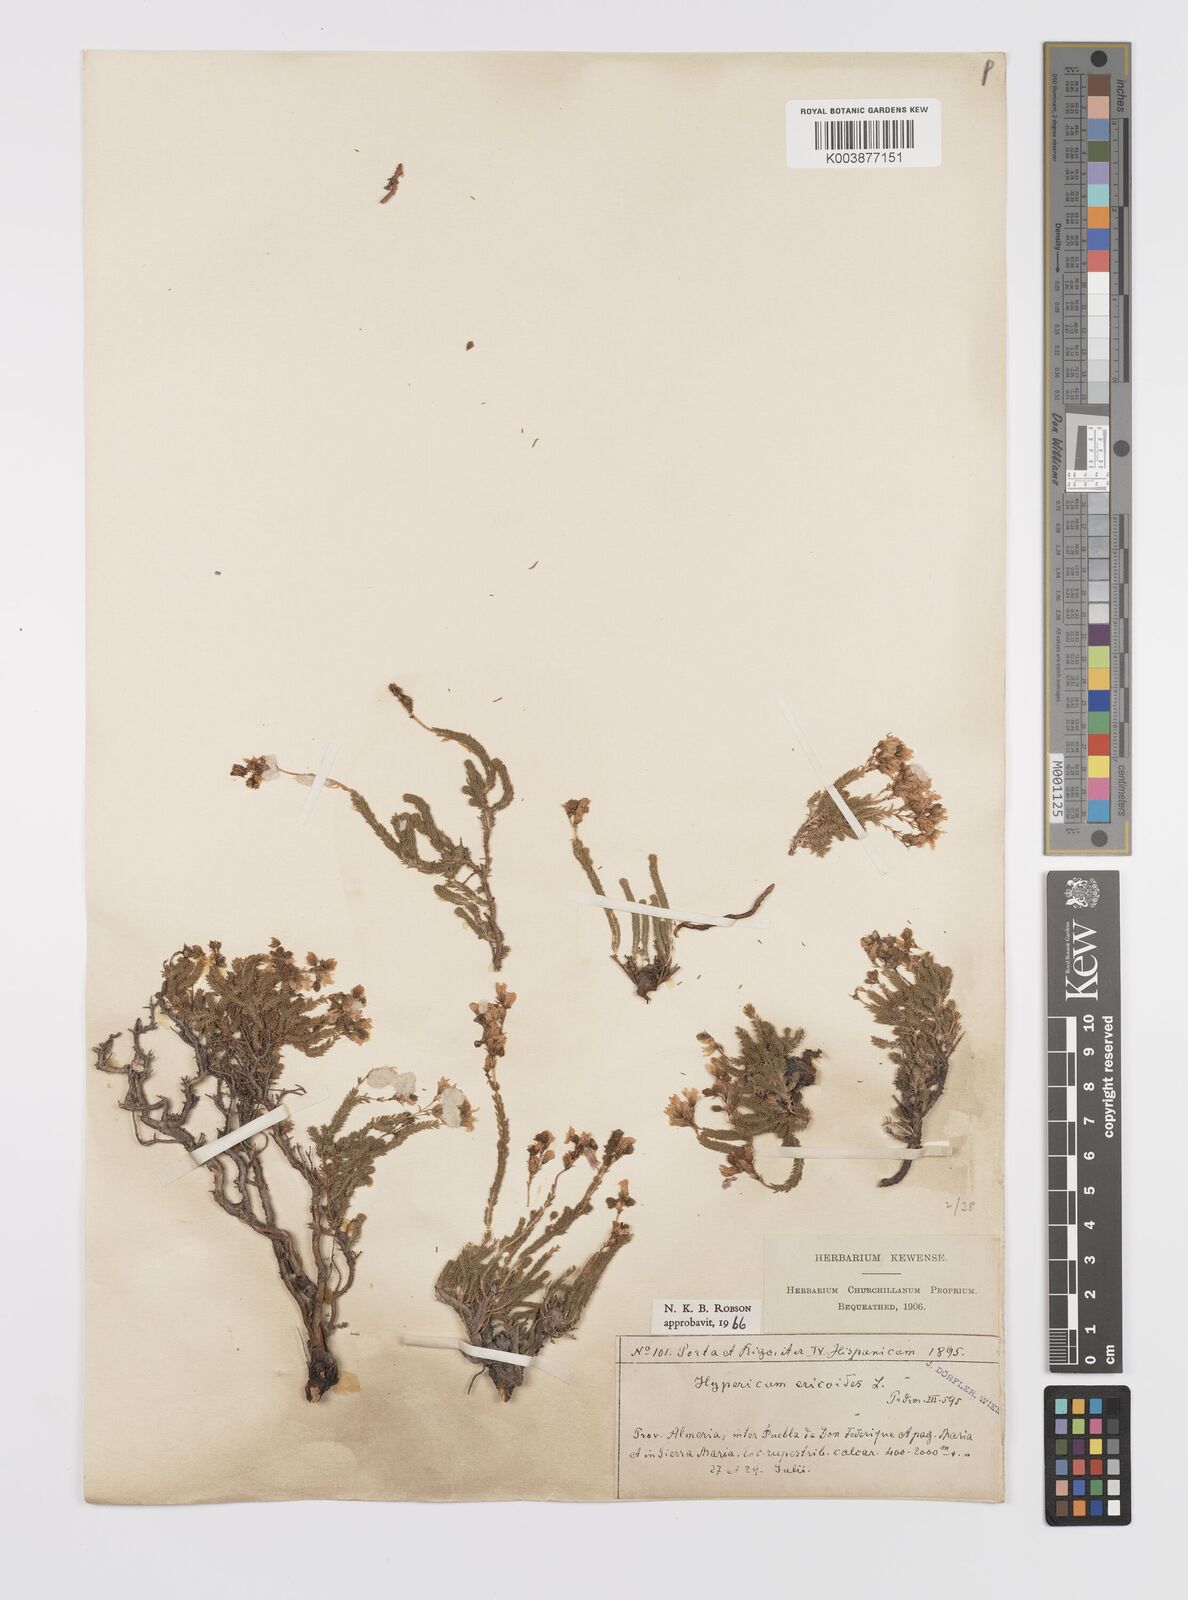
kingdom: Plantae
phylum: Tracheophyta
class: Magnoliopsida
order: Malpighiales
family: Hypericaceae
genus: Hypericum
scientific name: Hypericum ericoides
